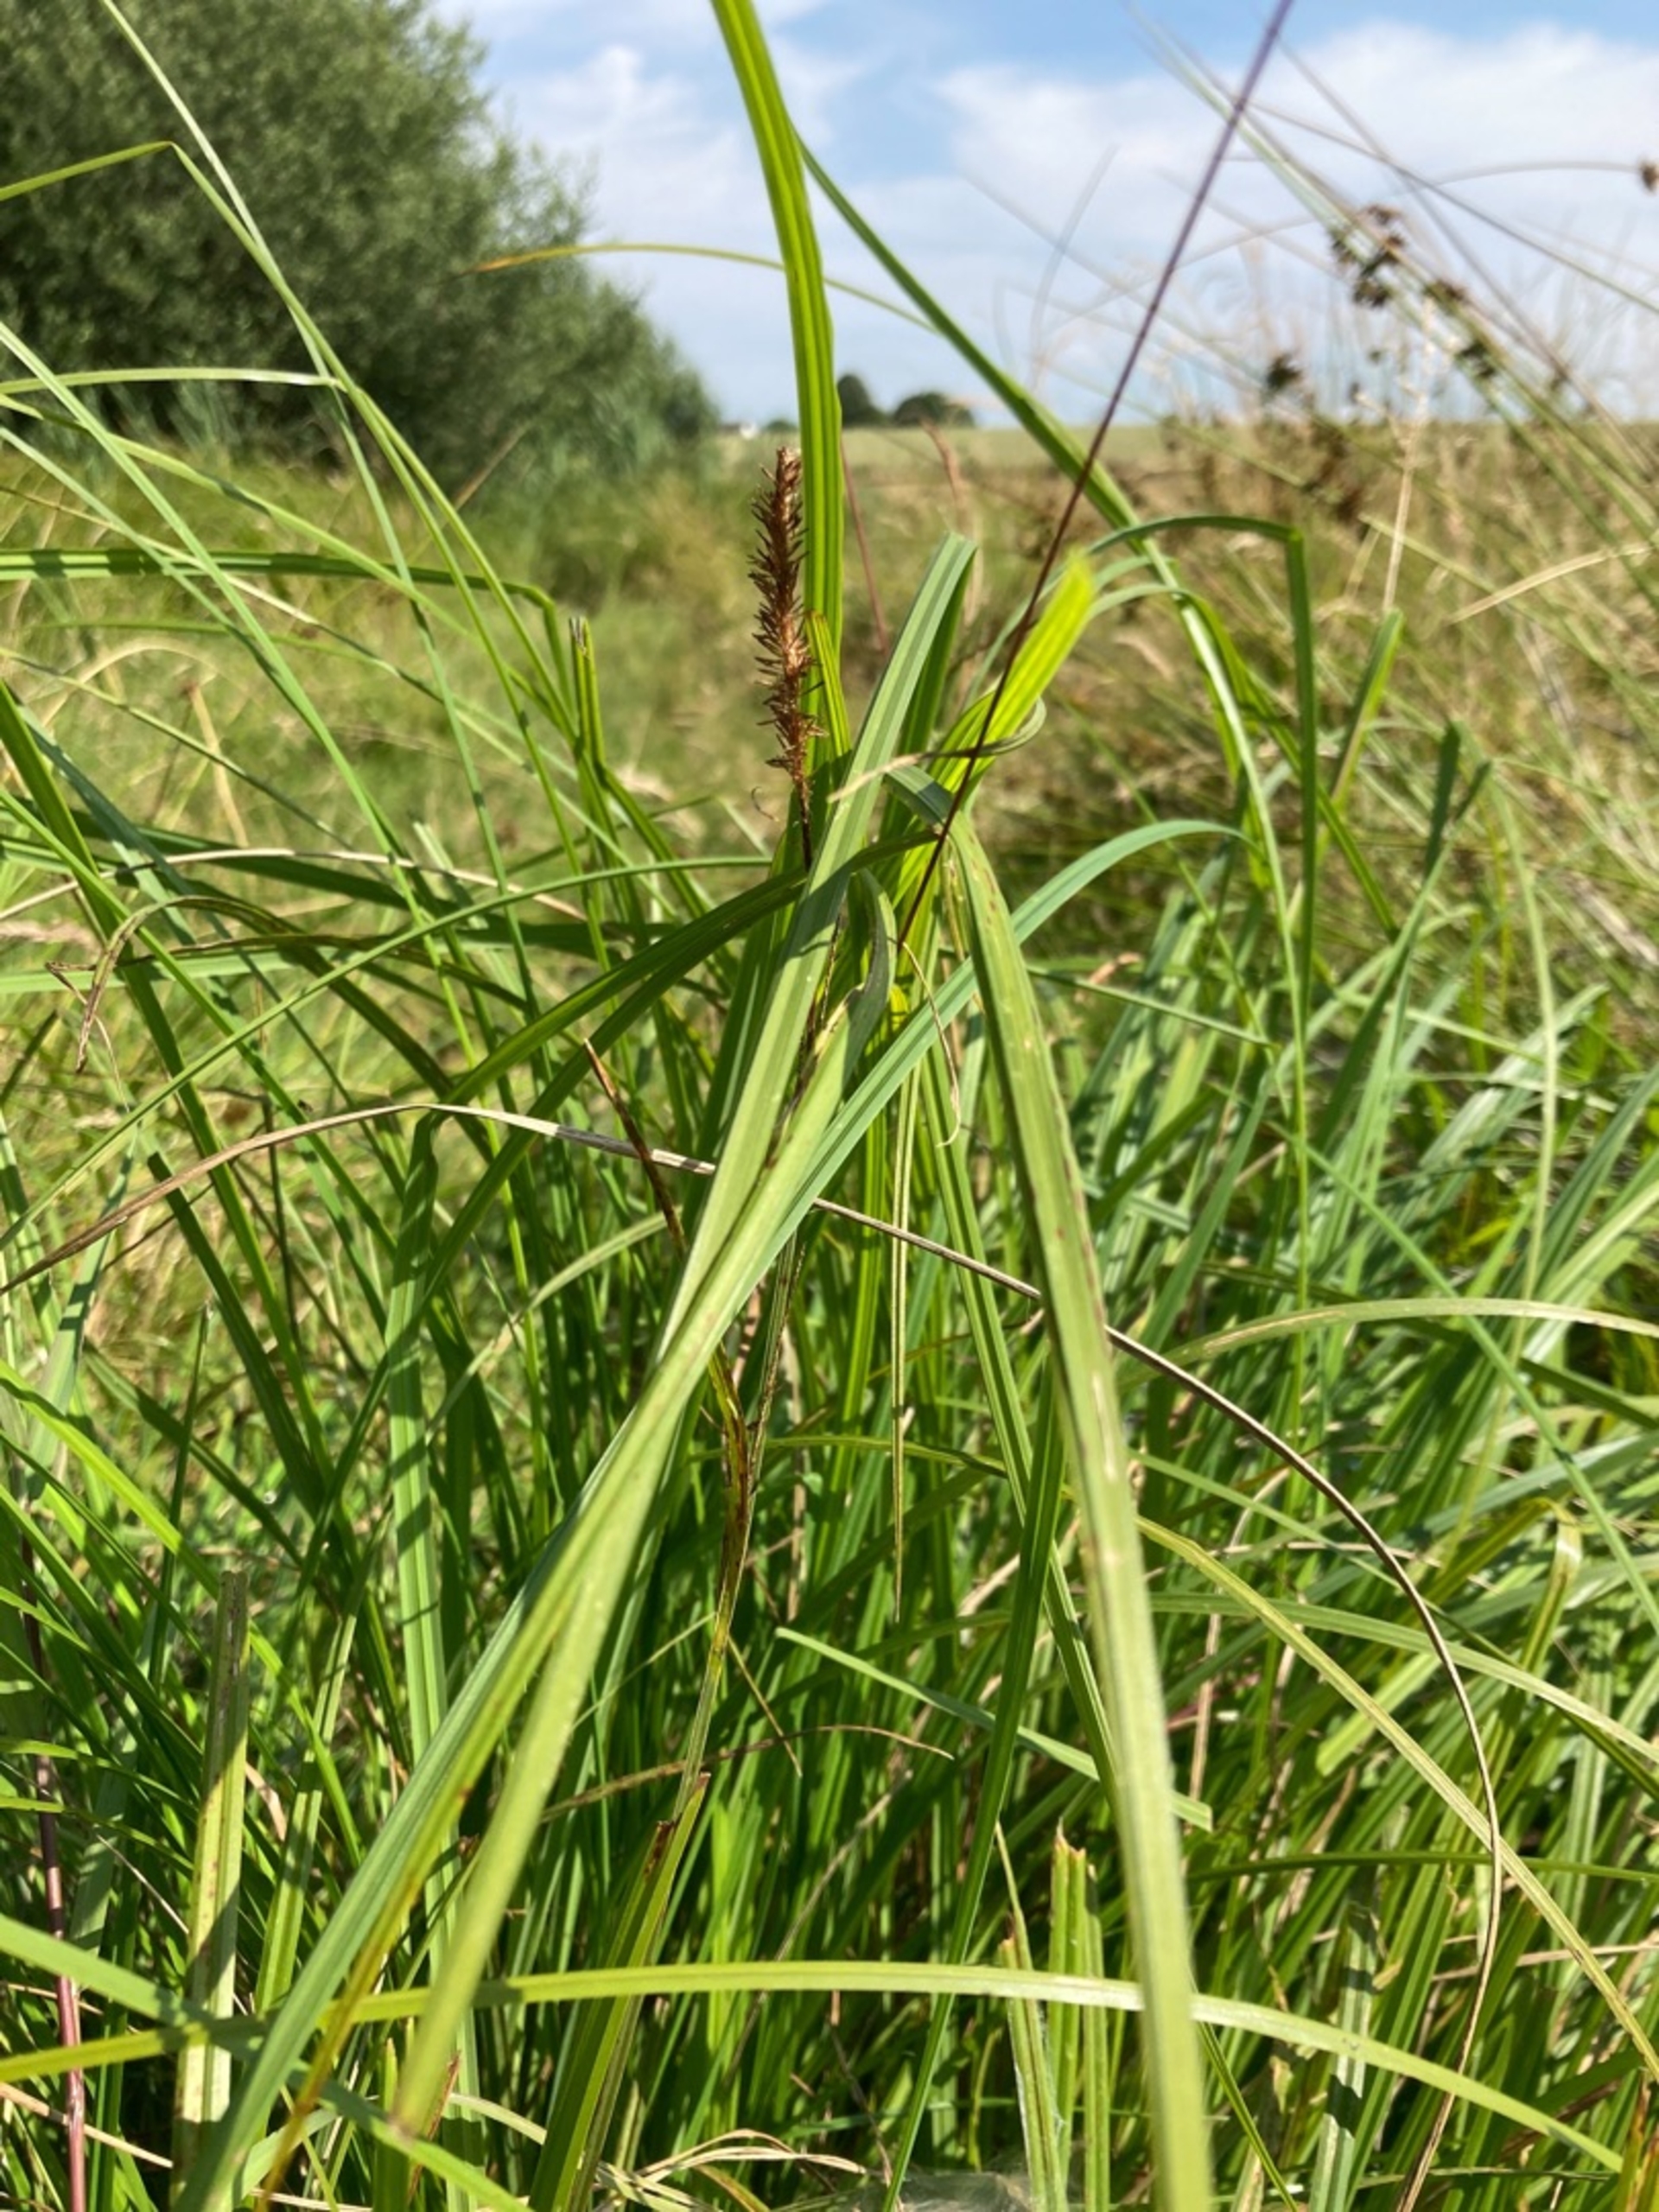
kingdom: Plantae
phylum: Tracheophyta
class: Liliopsida
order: Poales
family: Cyperaceae
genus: Carex
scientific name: Carex elata
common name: Stiv star
